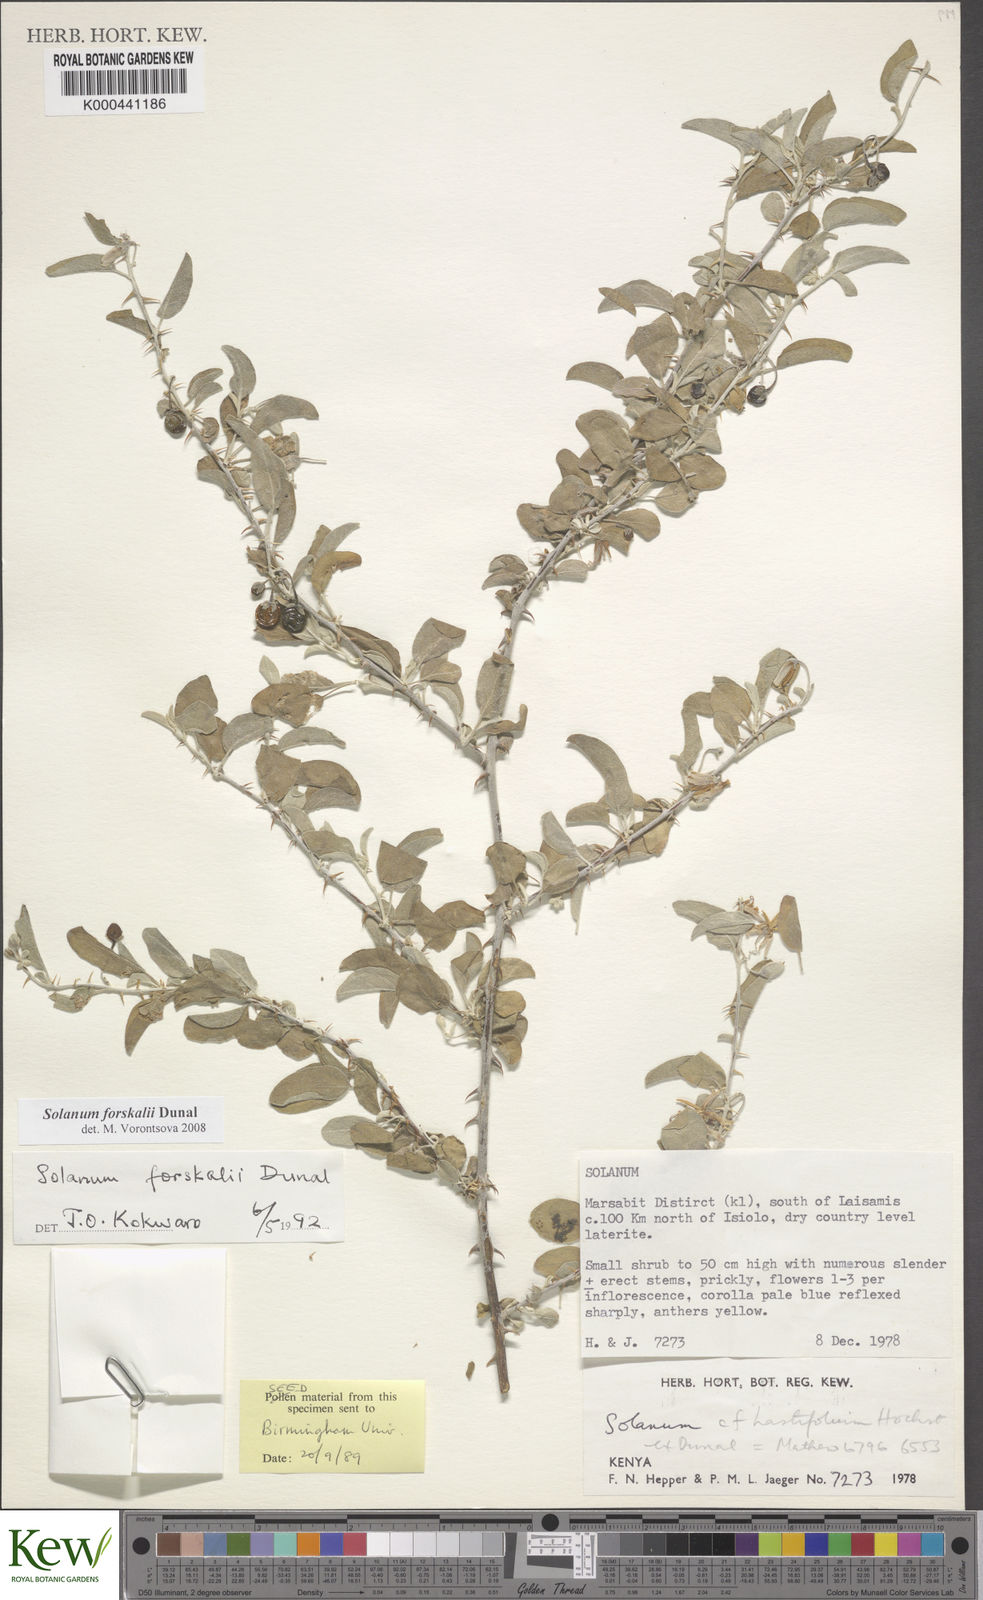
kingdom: Plantae
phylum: Tracheophyta
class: Magnoliopsida
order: Solanales
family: Solanaceae
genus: Solanum
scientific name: Solanum
